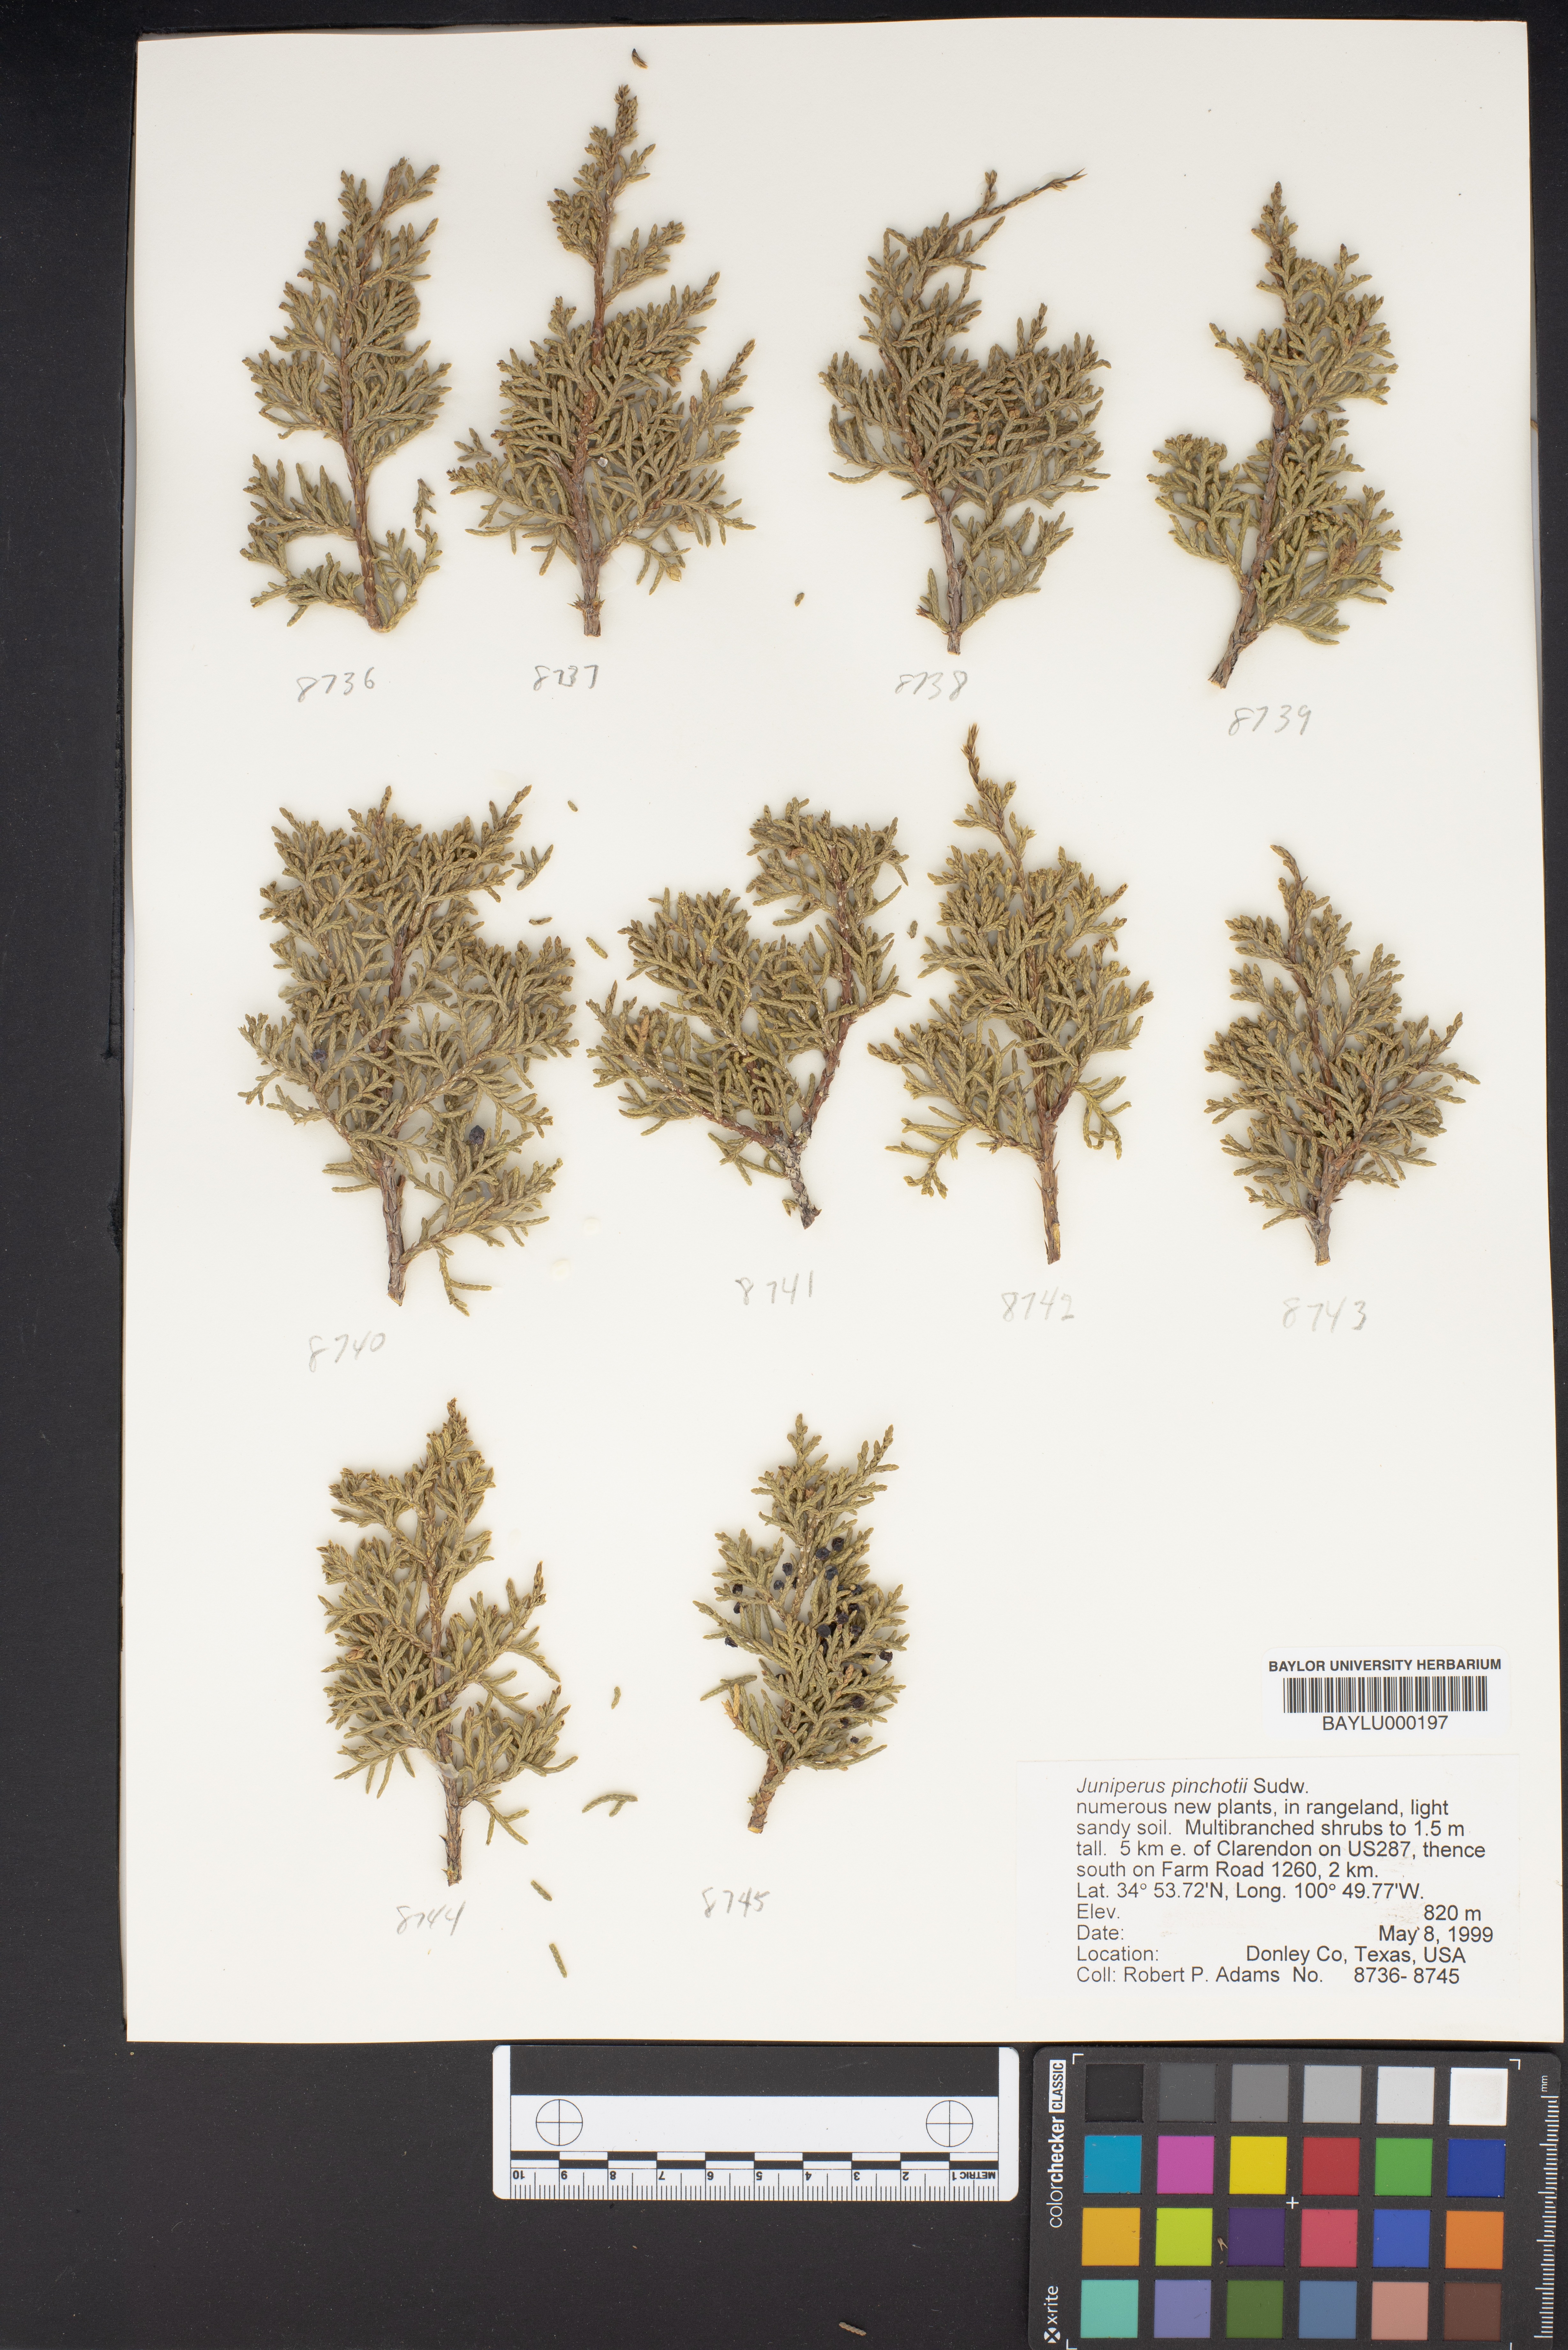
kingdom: Plantae
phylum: Tracheophyta
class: Pinopsida
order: Pinales
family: Cupressaceae
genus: Juniperus
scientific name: Juniperus pinchotii
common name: Pinchot juniper
